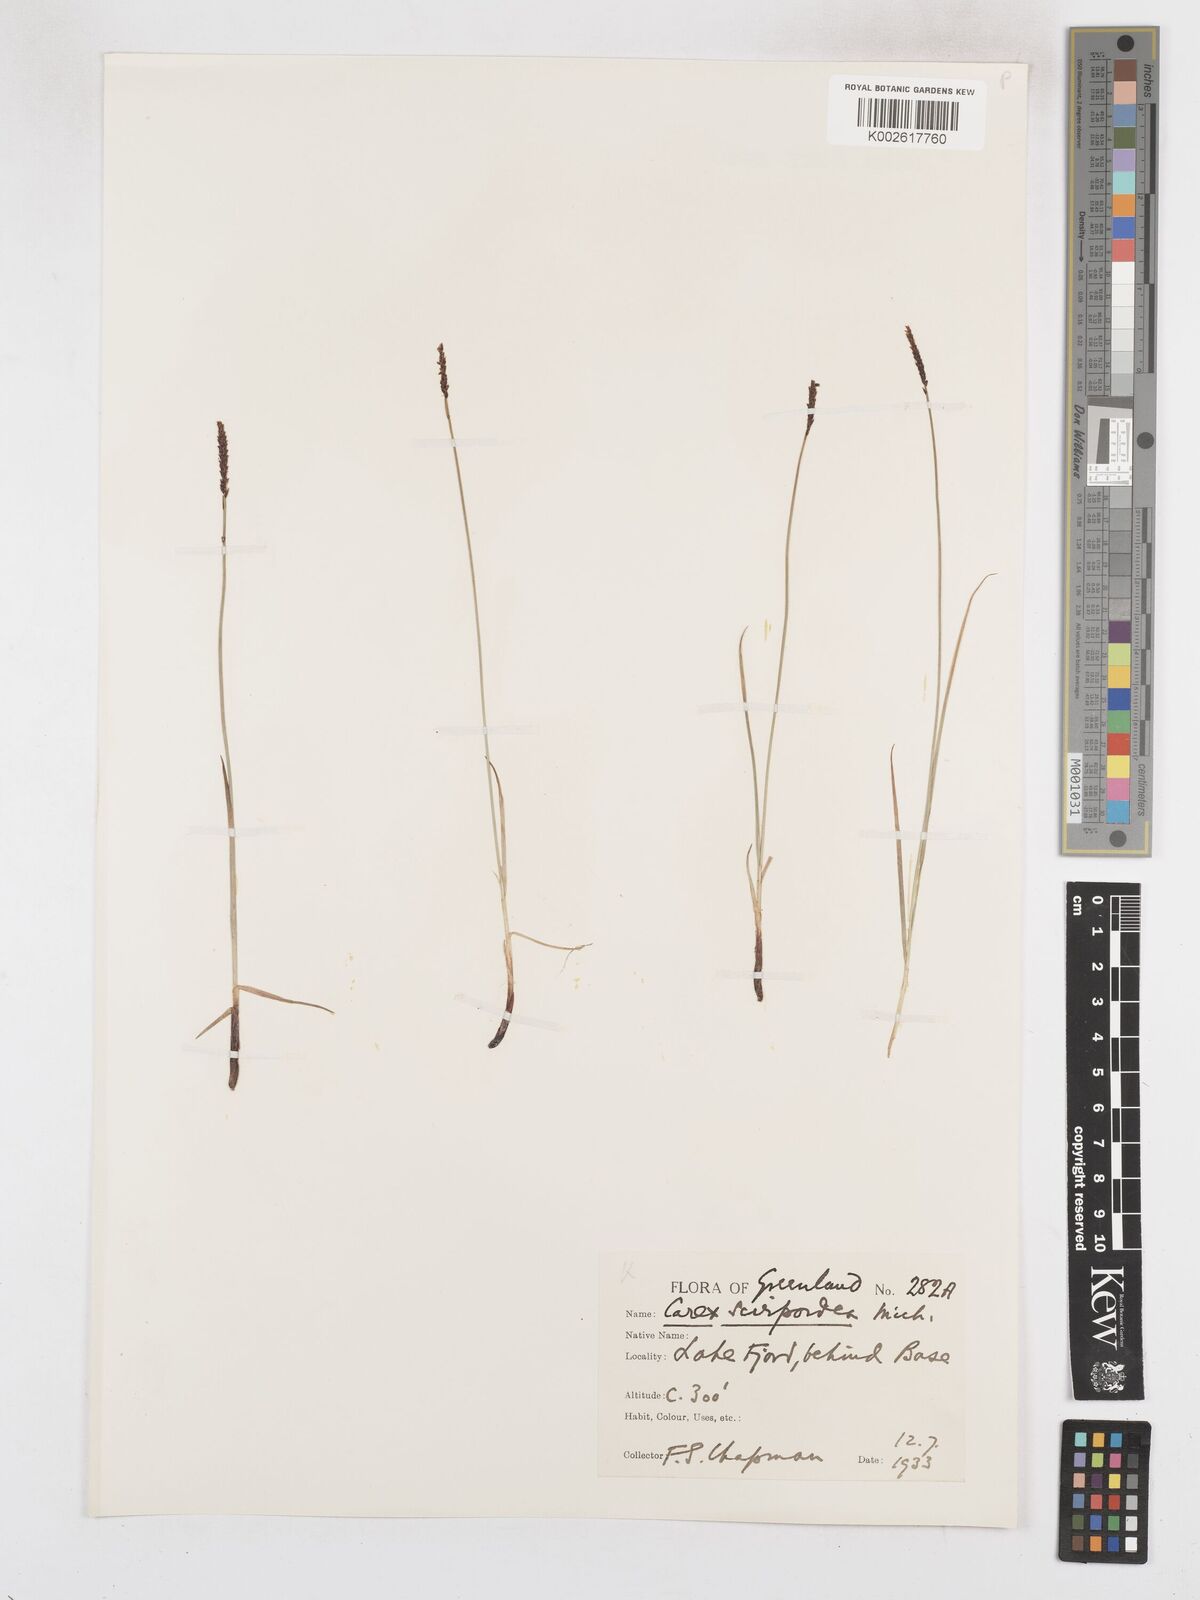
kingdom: Plantae
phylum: Tracheophyta
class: Liliopsida
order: Poales
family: Cyperaceae
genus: Carex
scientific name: Carex scirpoidea
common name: Canada single-spike sedge
